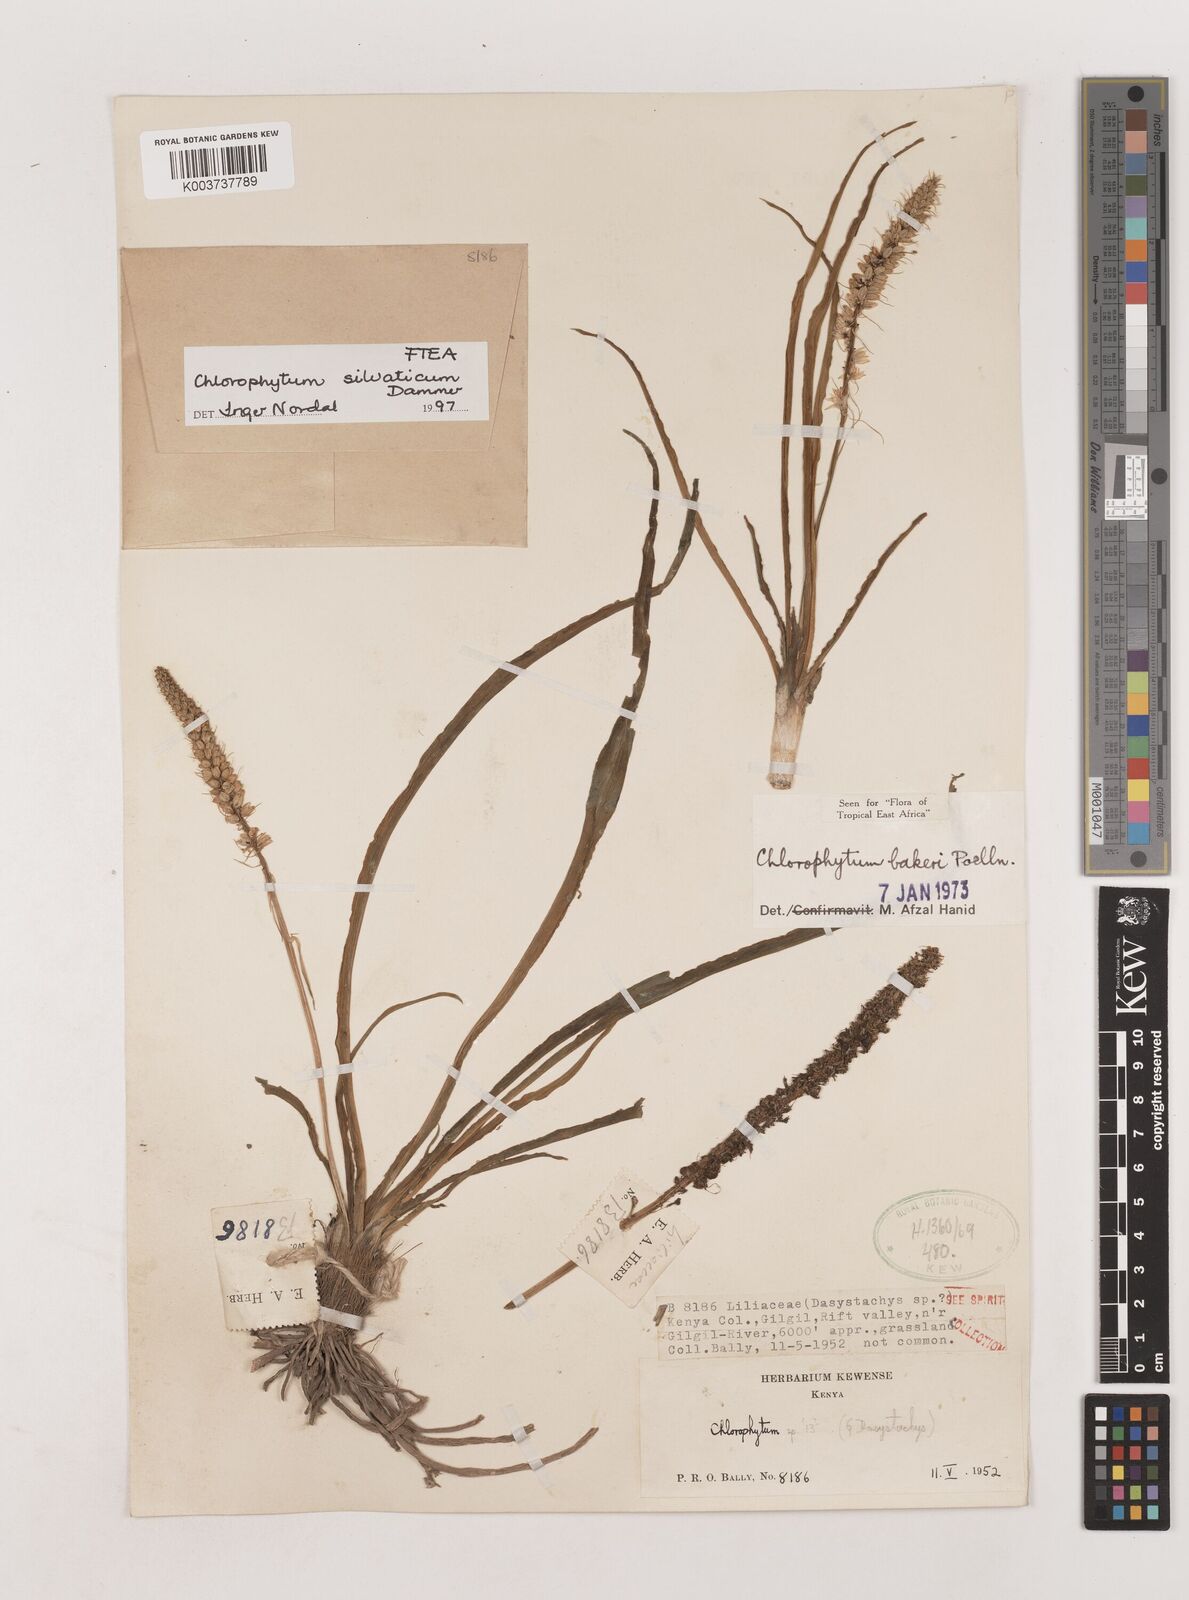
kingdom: Plantae
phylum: Tracheophyta
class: Liliopsida
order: Asparagales
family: Asparagaceae
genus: Chlorophytum
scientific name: Chlorophytum africanum
